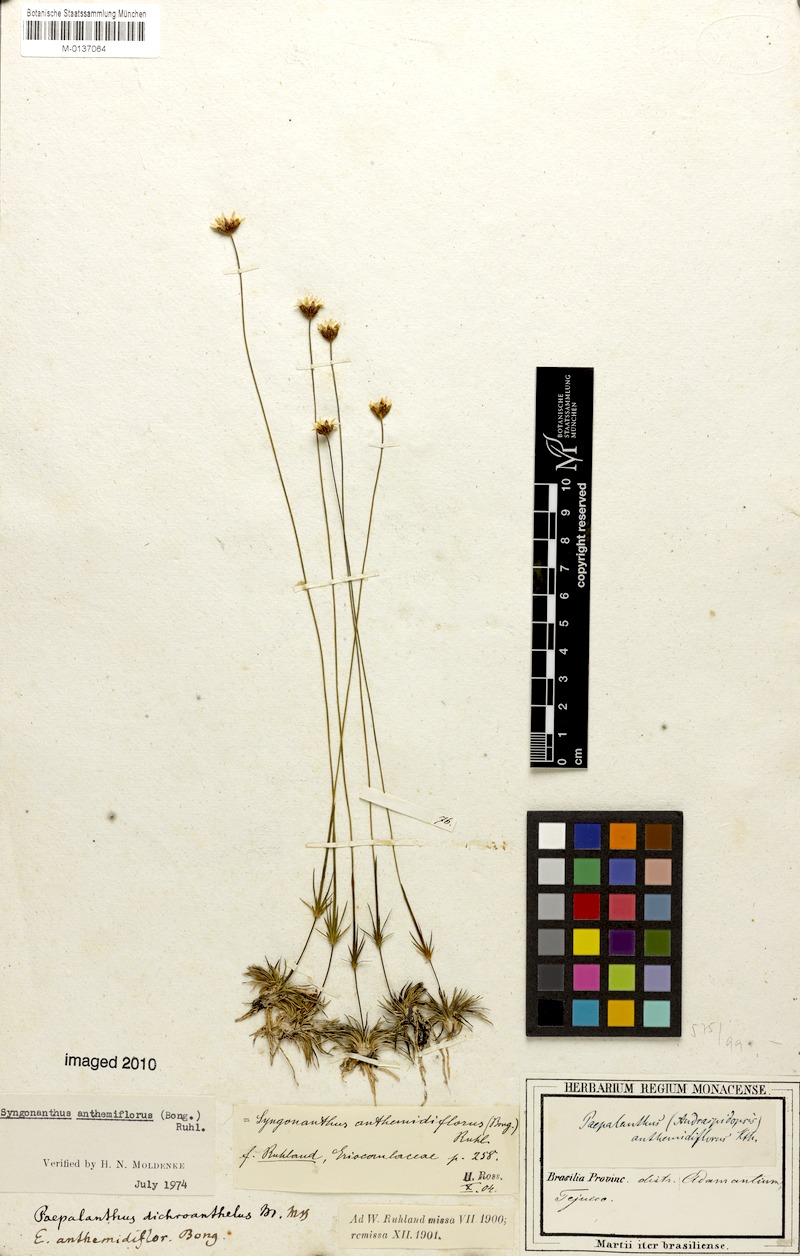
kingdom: Plantae
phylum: Tracheophyta
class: Liliopsida
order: Poales
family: Eriocaulaceae
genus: Syngonanthus
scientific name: Syngonanthus anthemiflorus
